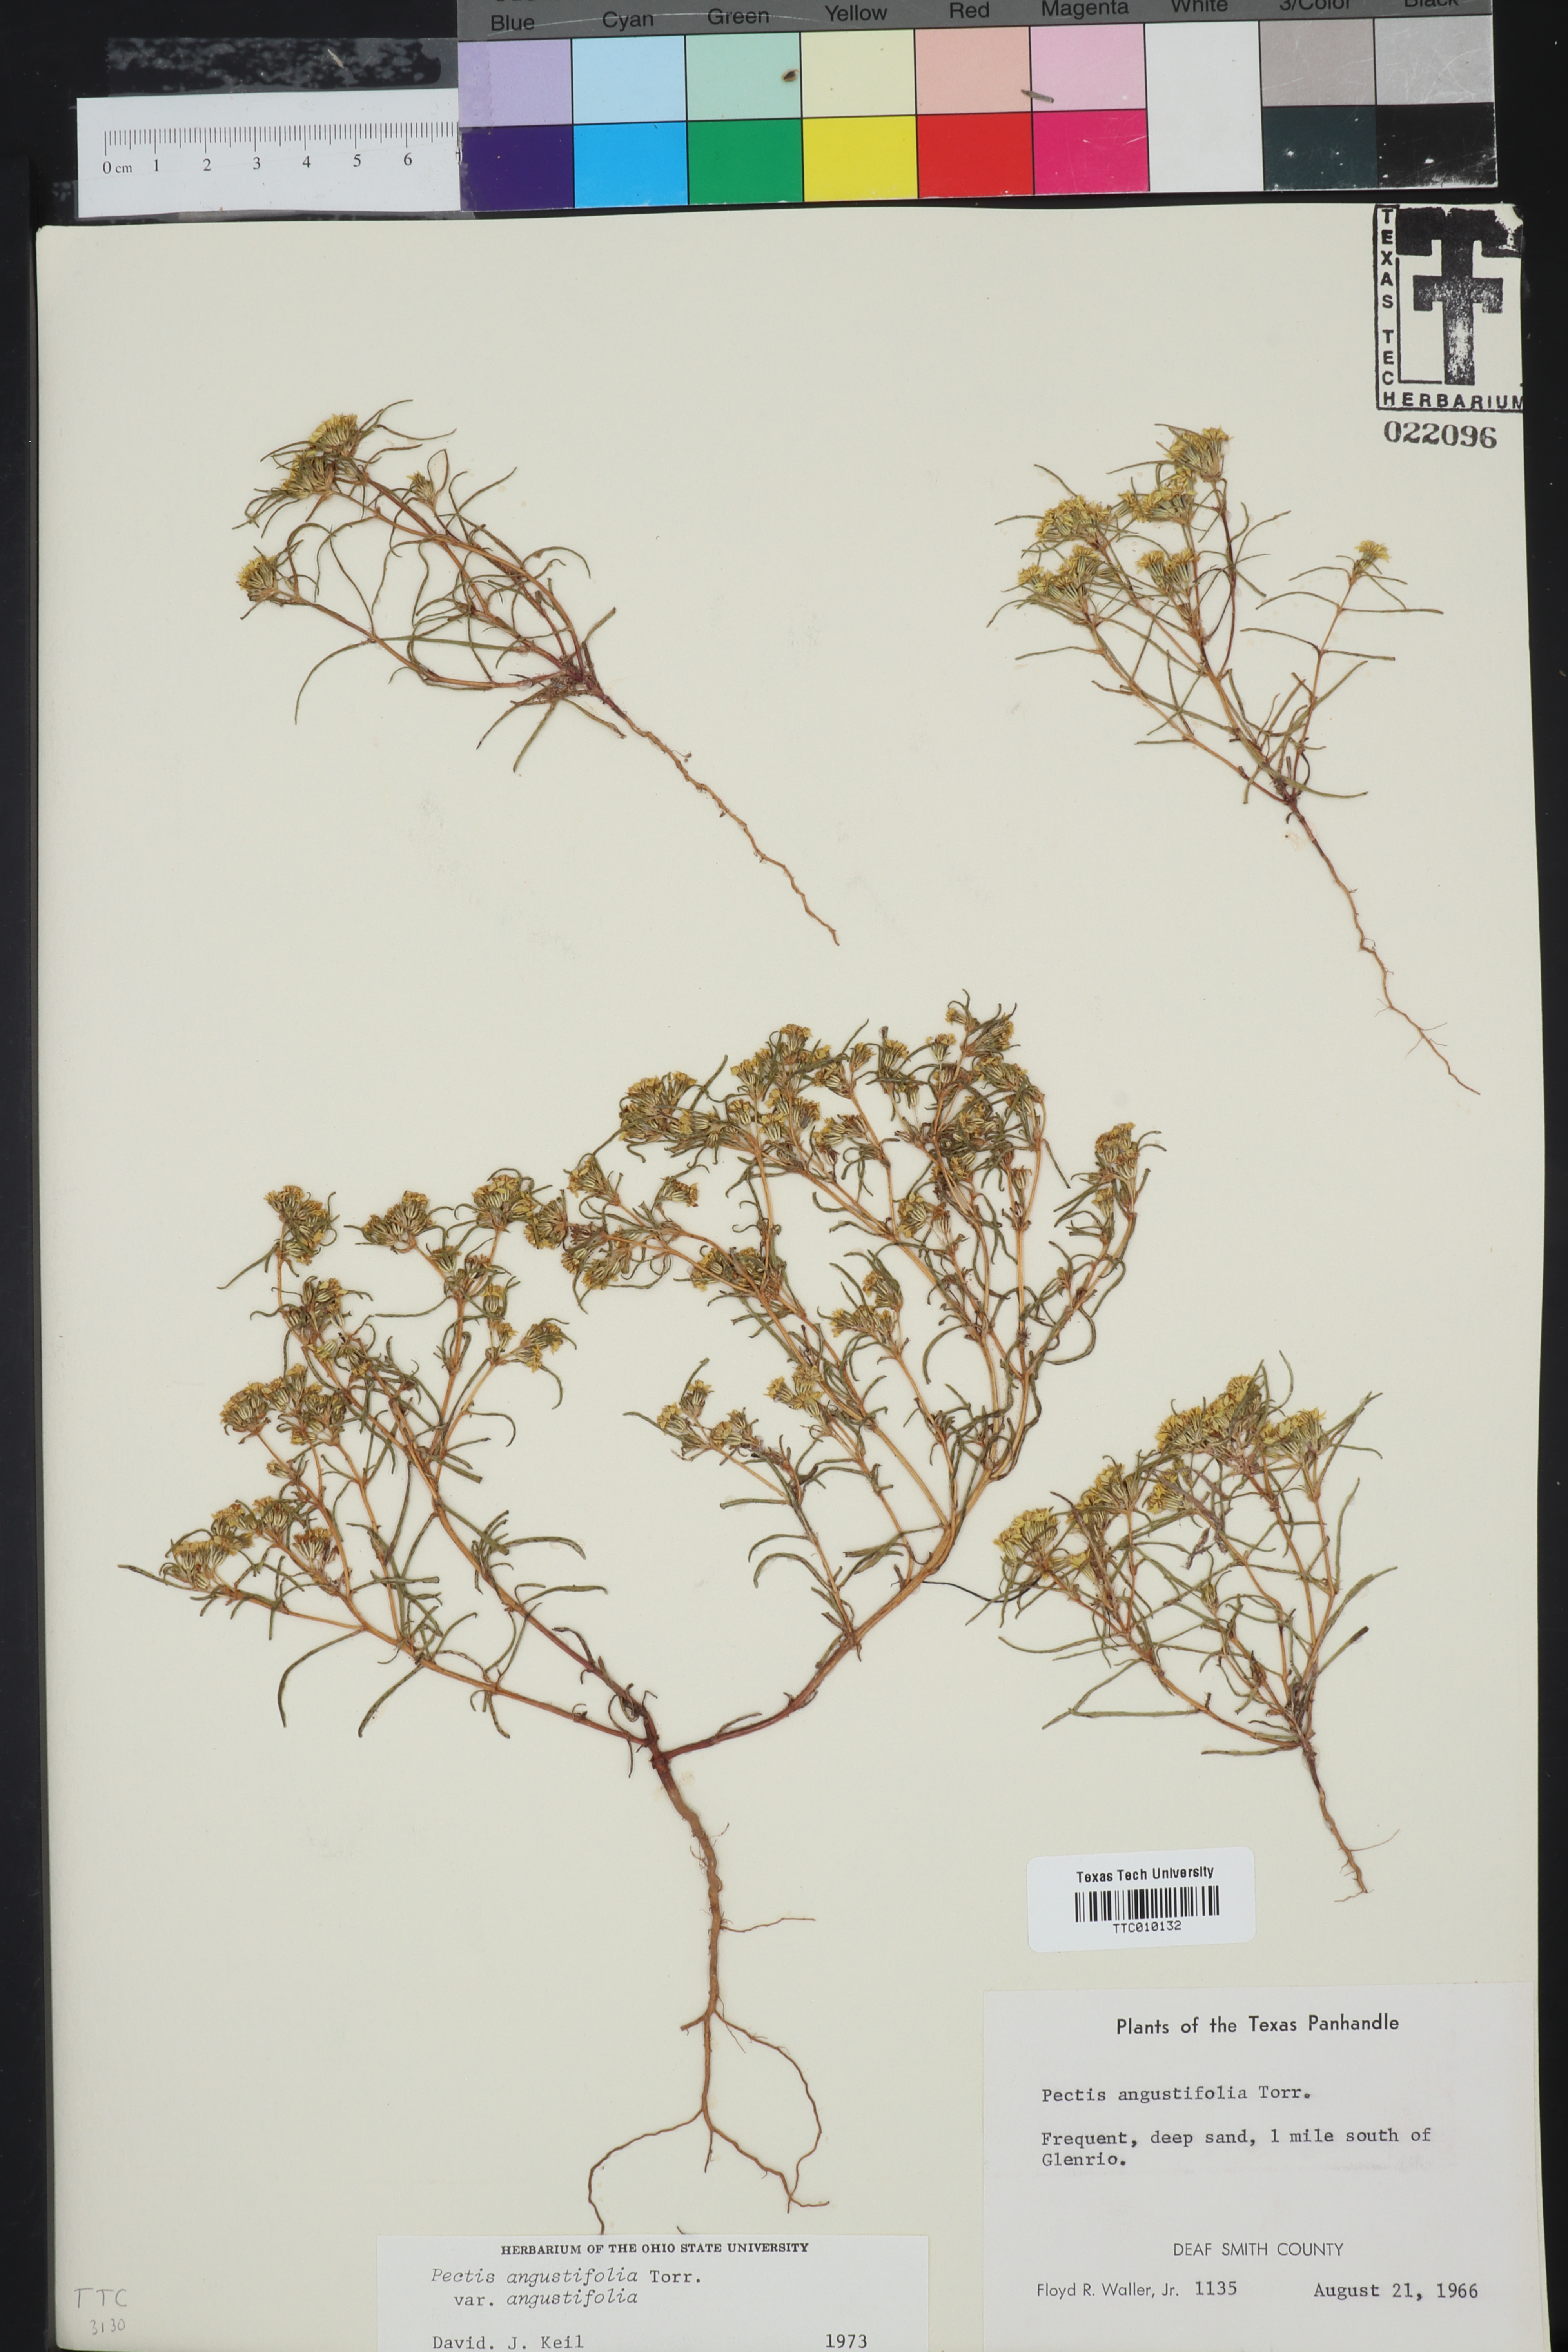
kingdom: Plantae
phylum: Tracheophyta
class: Magnoliopsida
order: Asterales
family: Asteraceae
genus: Pectis
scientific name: Pectis angustifolia
